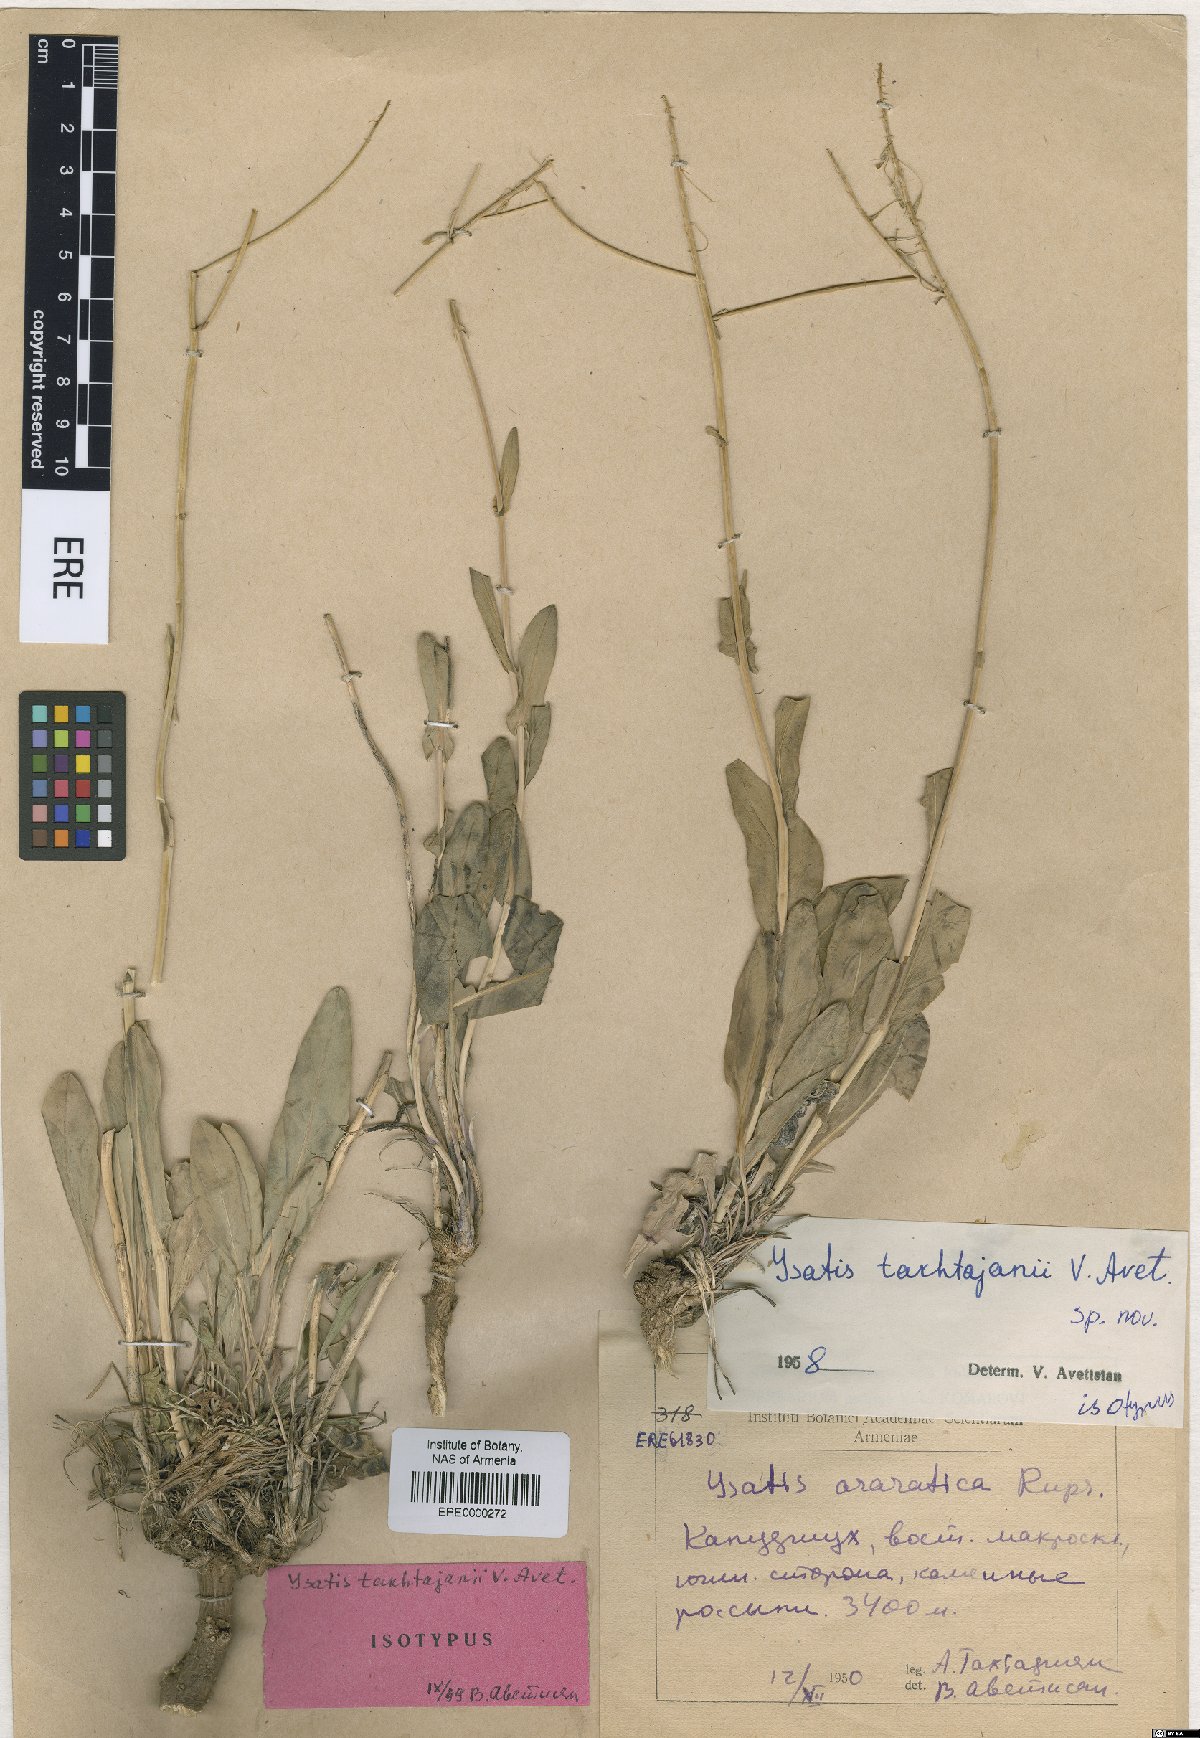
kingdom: Plantae
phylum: Tracheophyta
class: Magnoliopsida
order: Brassicales
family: Brassicaceae
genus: Isatis
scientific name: Isatis takhtajanii
